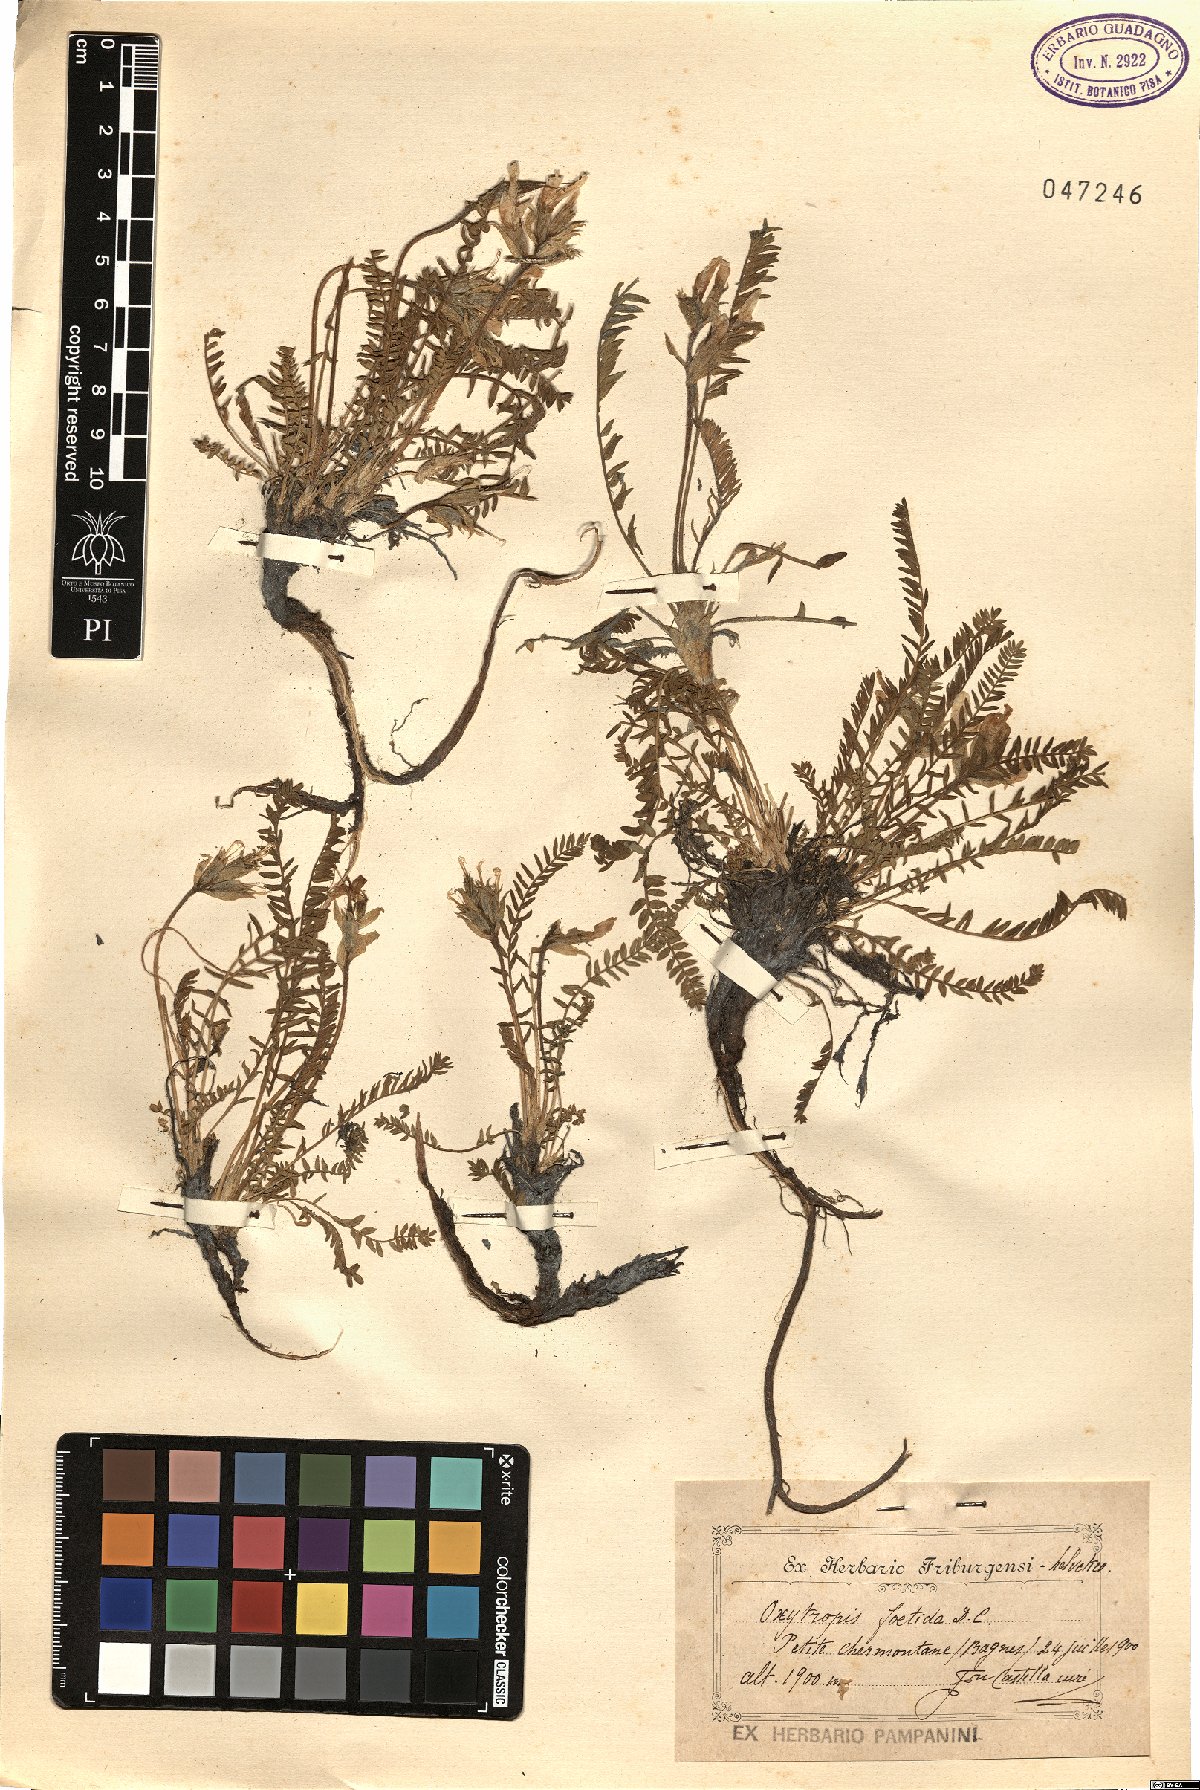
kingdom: Plantae
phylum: Tracheophyta
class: Magnoliopsida
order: Fabales
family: Fabaceae
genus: Oxytropis
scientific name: Oxytropis fetida
